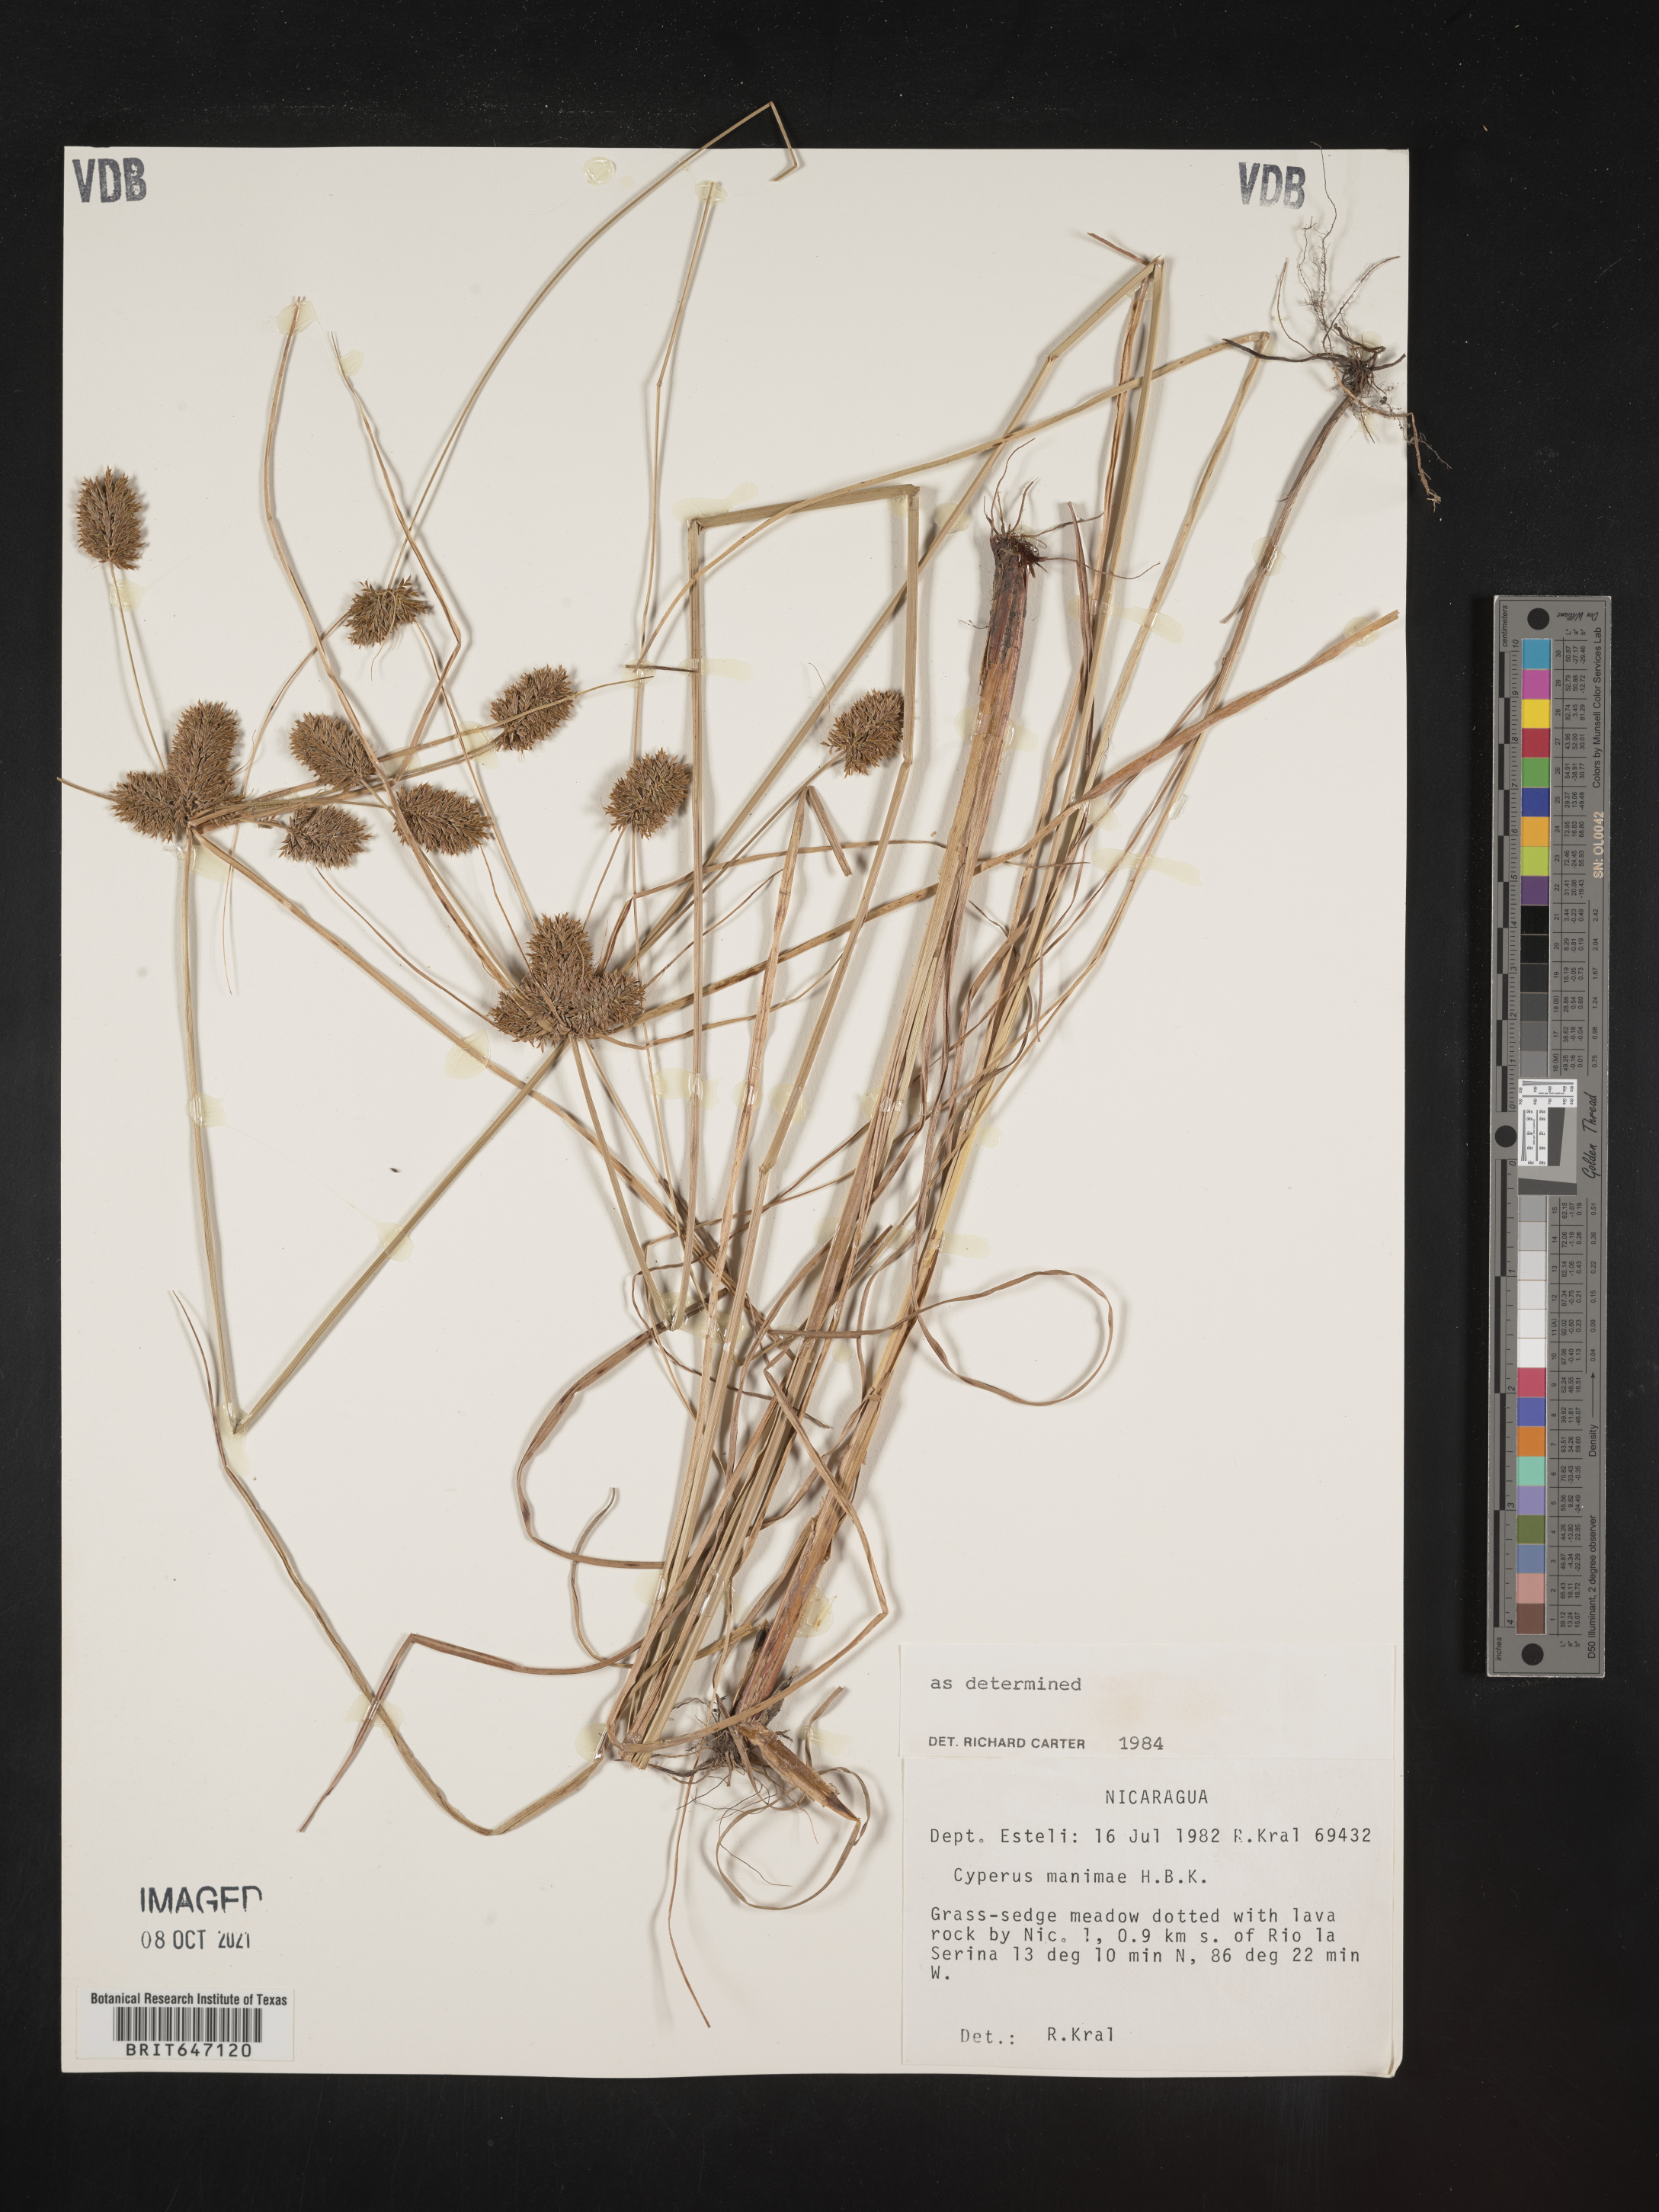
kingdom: Plantae
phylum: Tracheophyta
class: Liliopsida
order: Poales
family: Cyperaceae
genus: Cyperus
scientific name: Cyperus manimae
